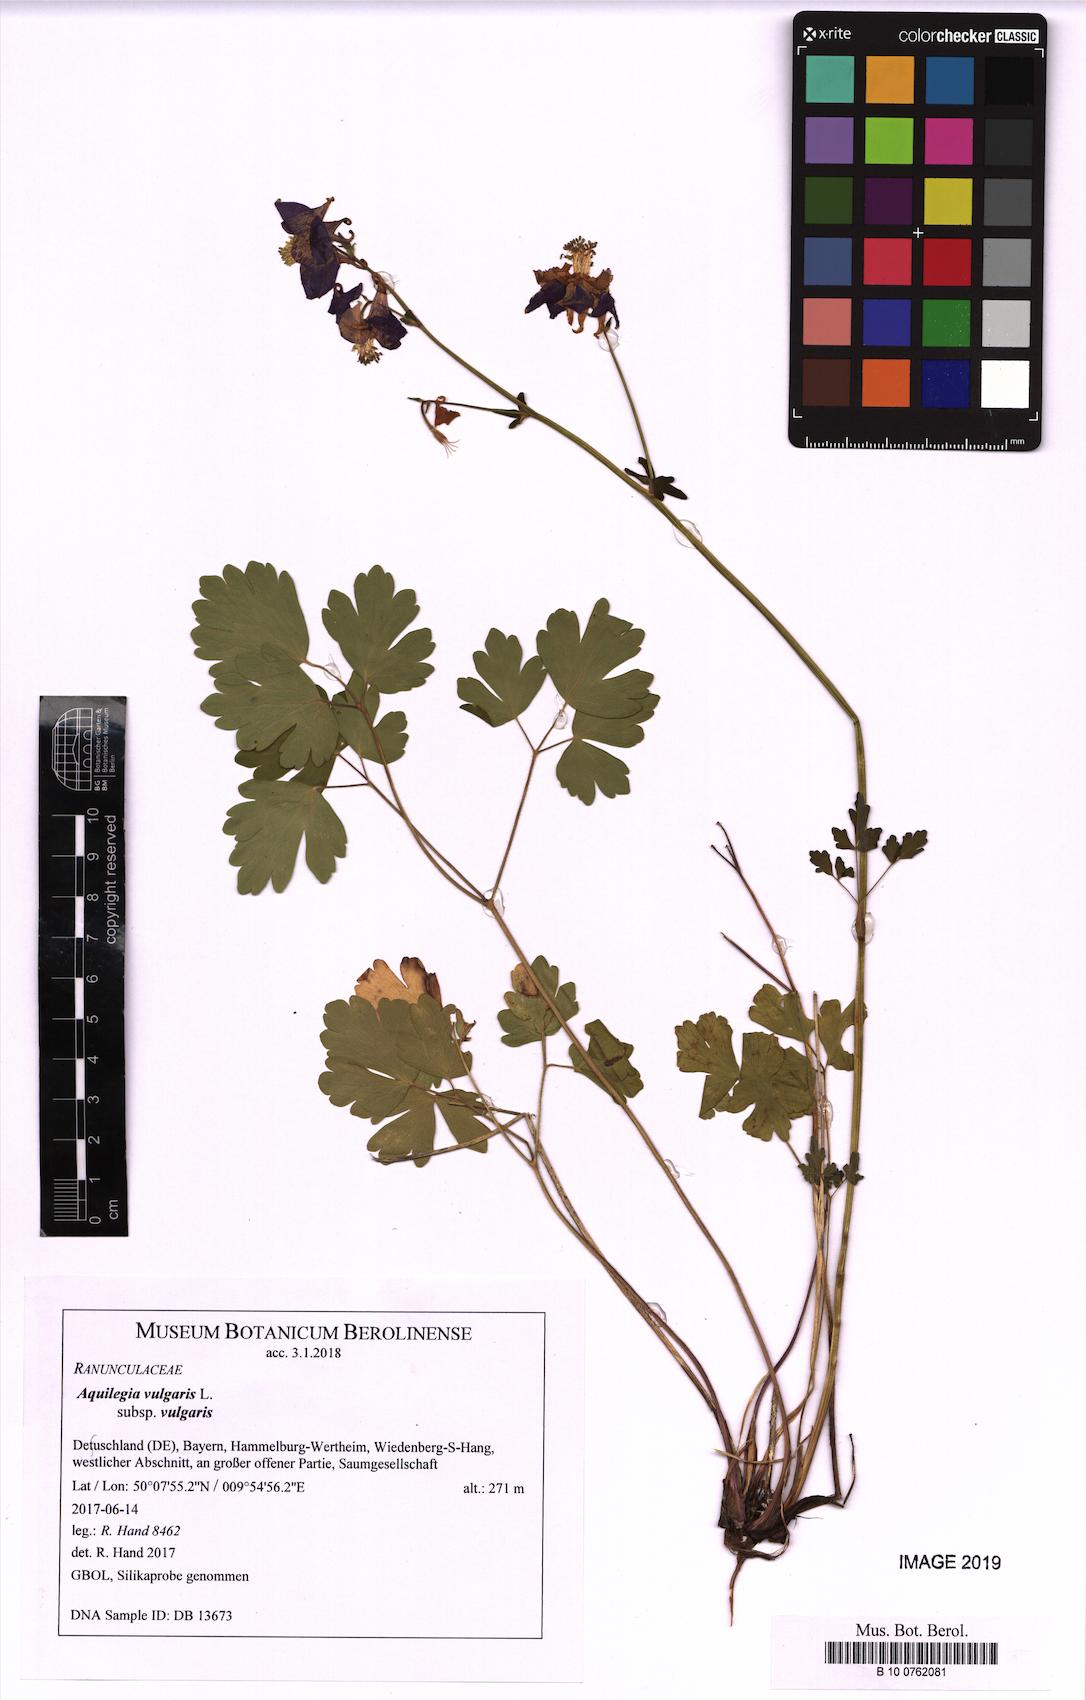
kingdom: Plantae
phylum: Tracheophyta
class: Magnoliopsida
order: Ranunculales
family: Ranunculaceae
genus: Aquilegia
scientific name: Aquilegia vulgaris
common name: Columbine
